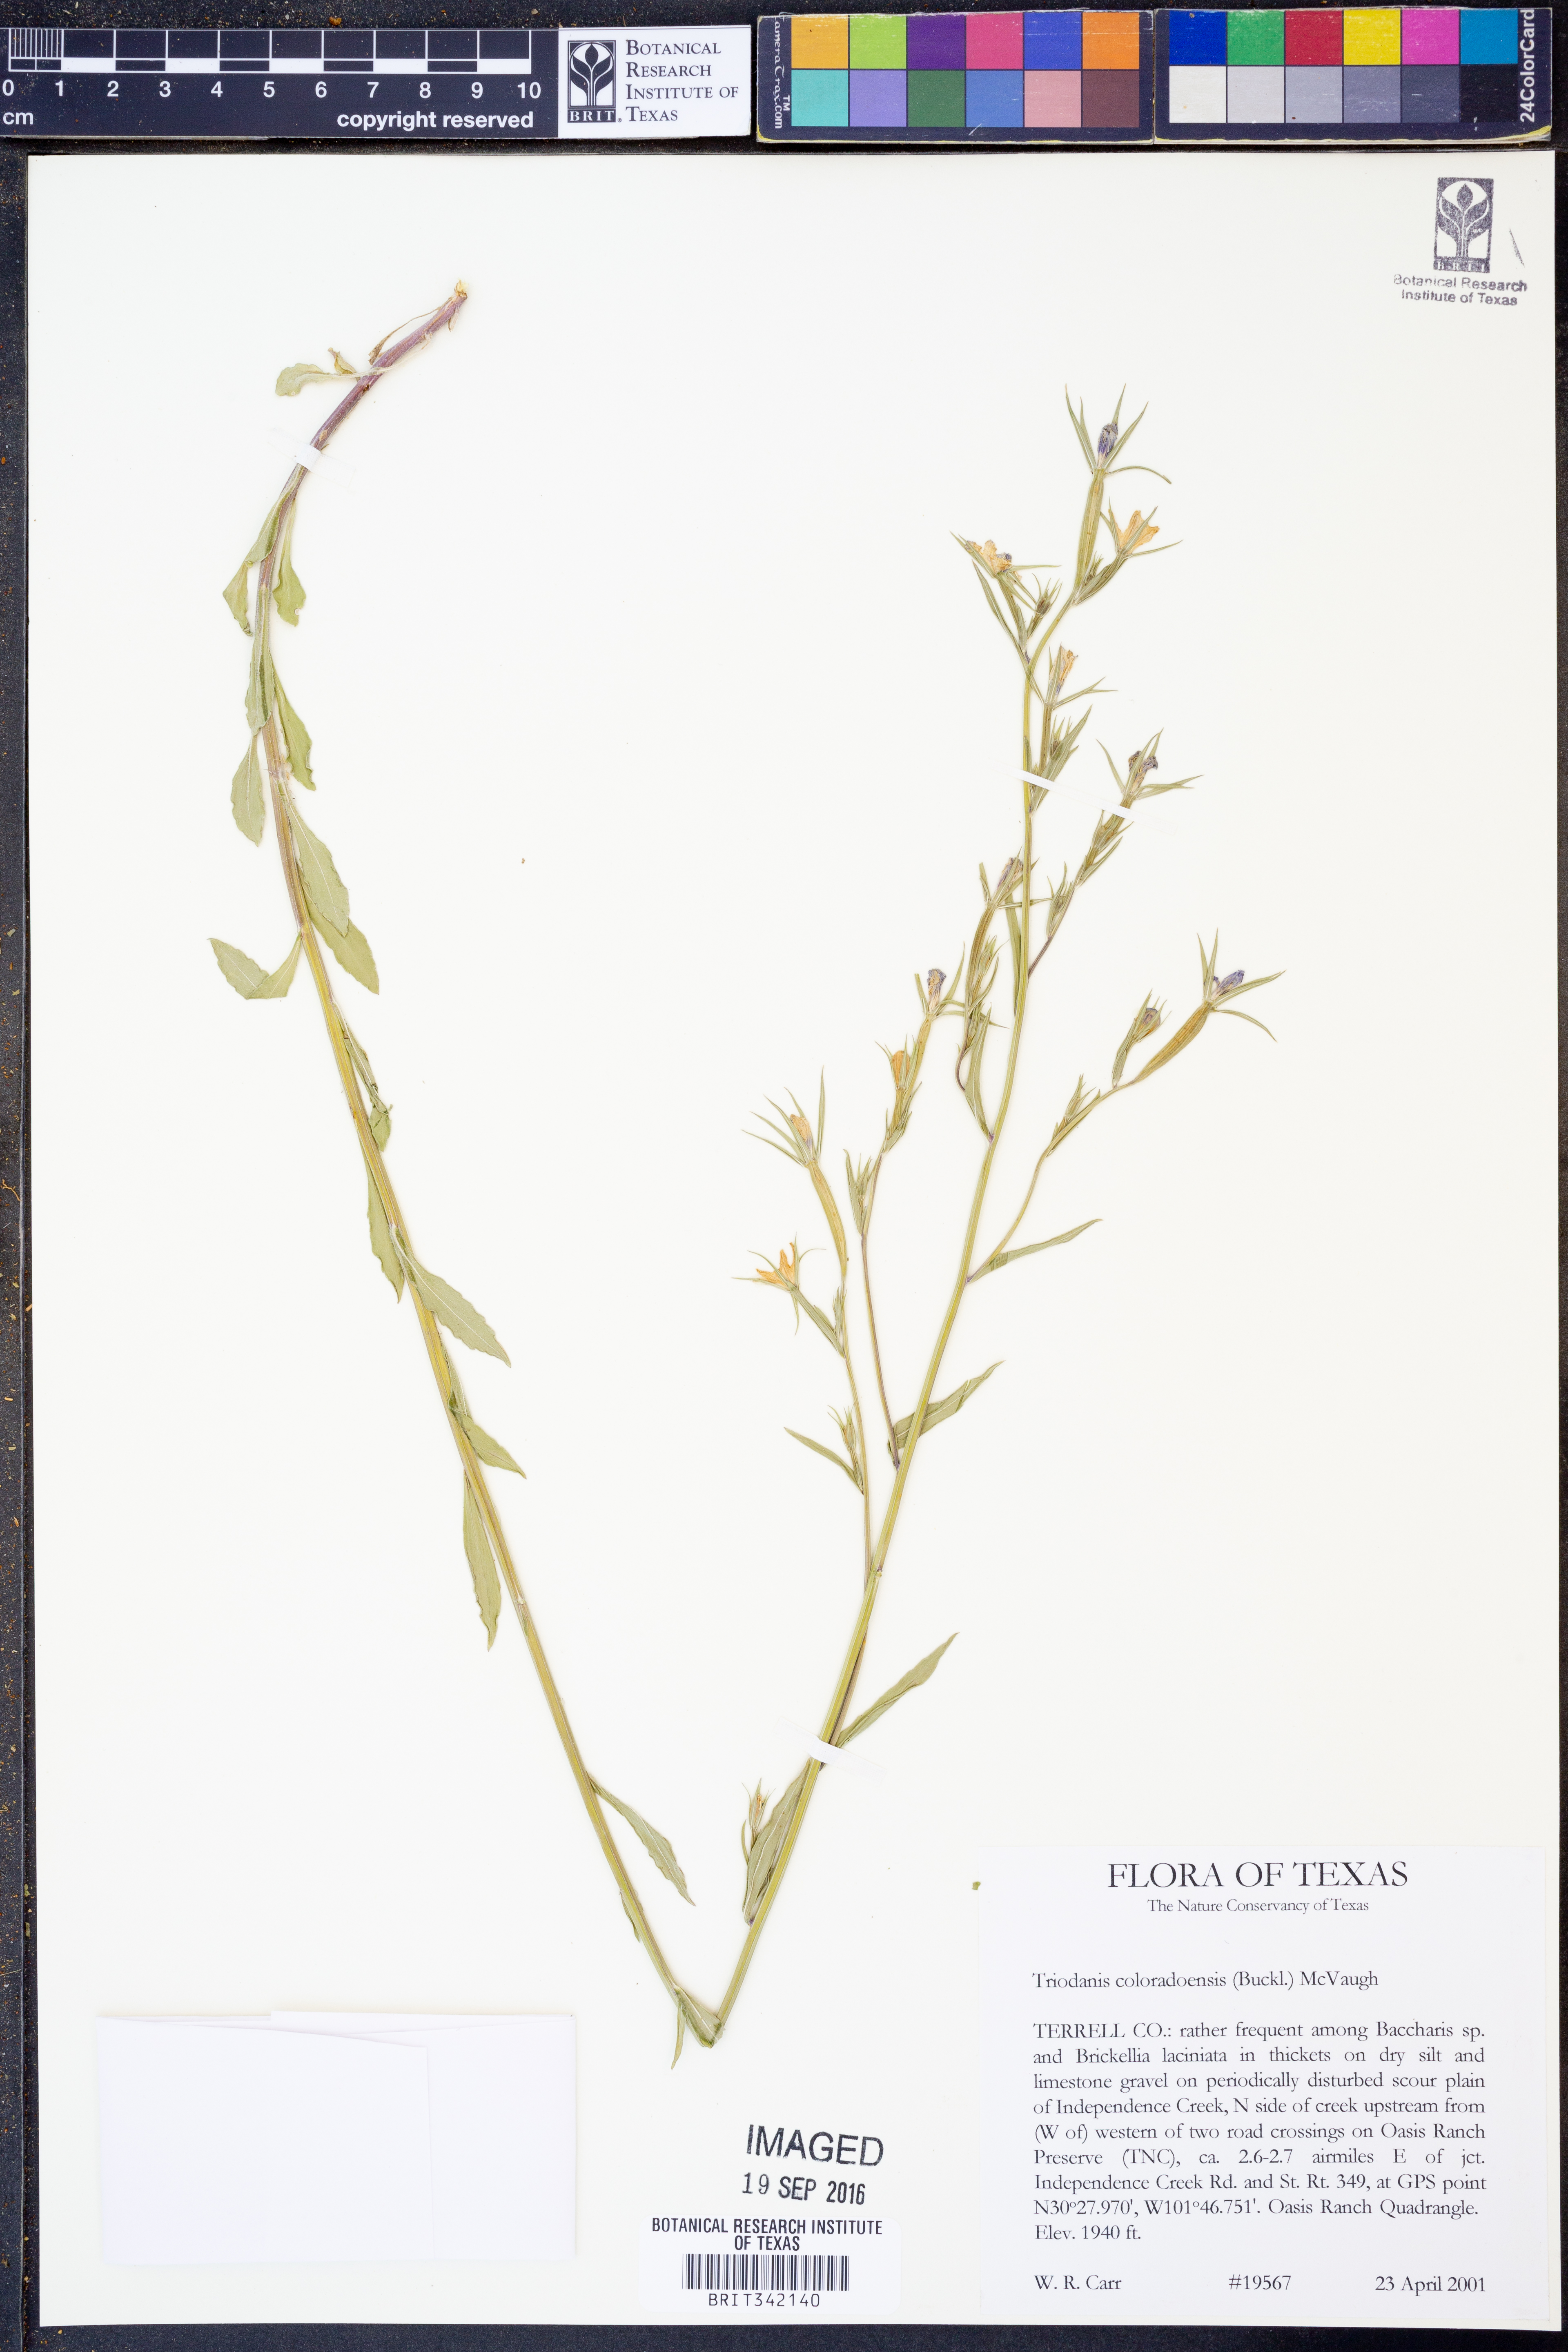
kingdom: Plantae
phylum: Tracheophyta
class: Magnoliopsida
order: Asterales
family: Campanulaceae
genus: Triodanis
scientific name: Triodanis coloradoensis
